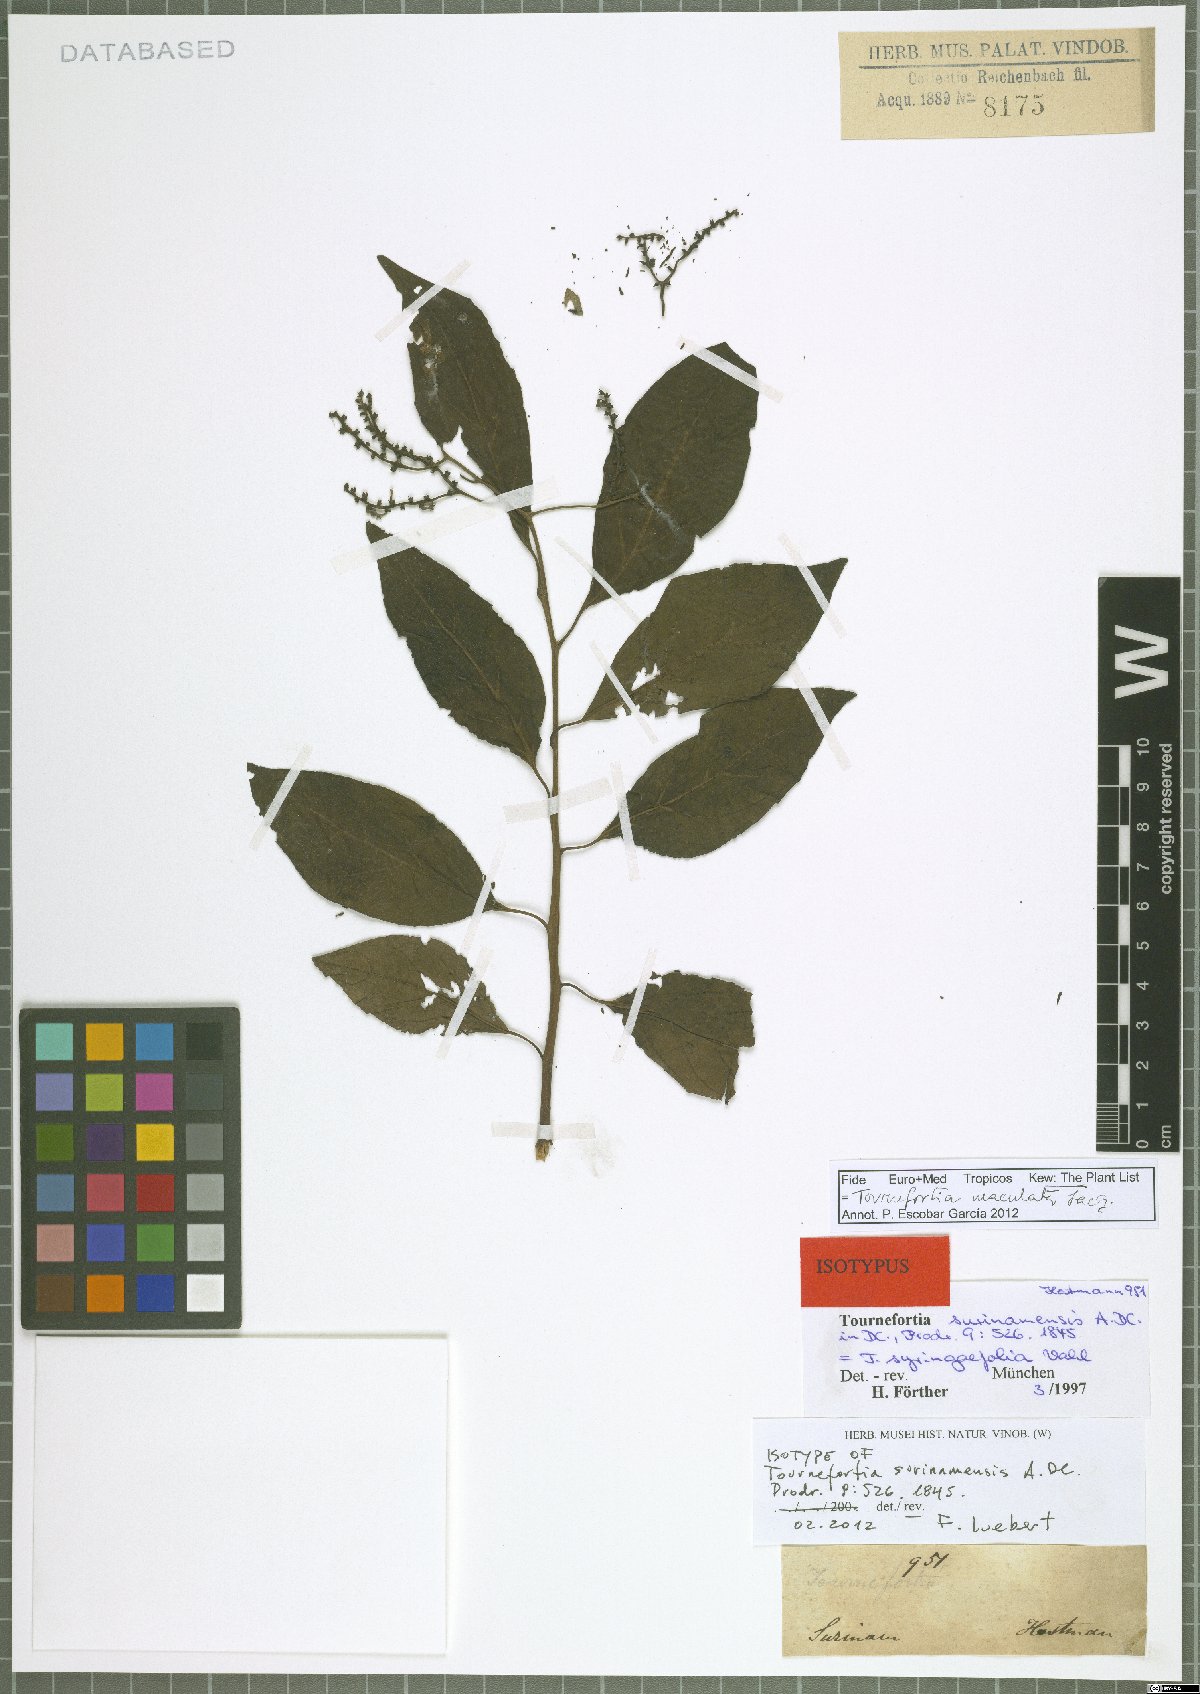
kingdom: Plantae
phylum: Tracheophyta
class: Magnoliopsida
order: Boraginales
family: Heliotropiaceae
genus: Myriopus
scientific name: Myriopus maculatus
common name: Laurel-leaf soldierbush
